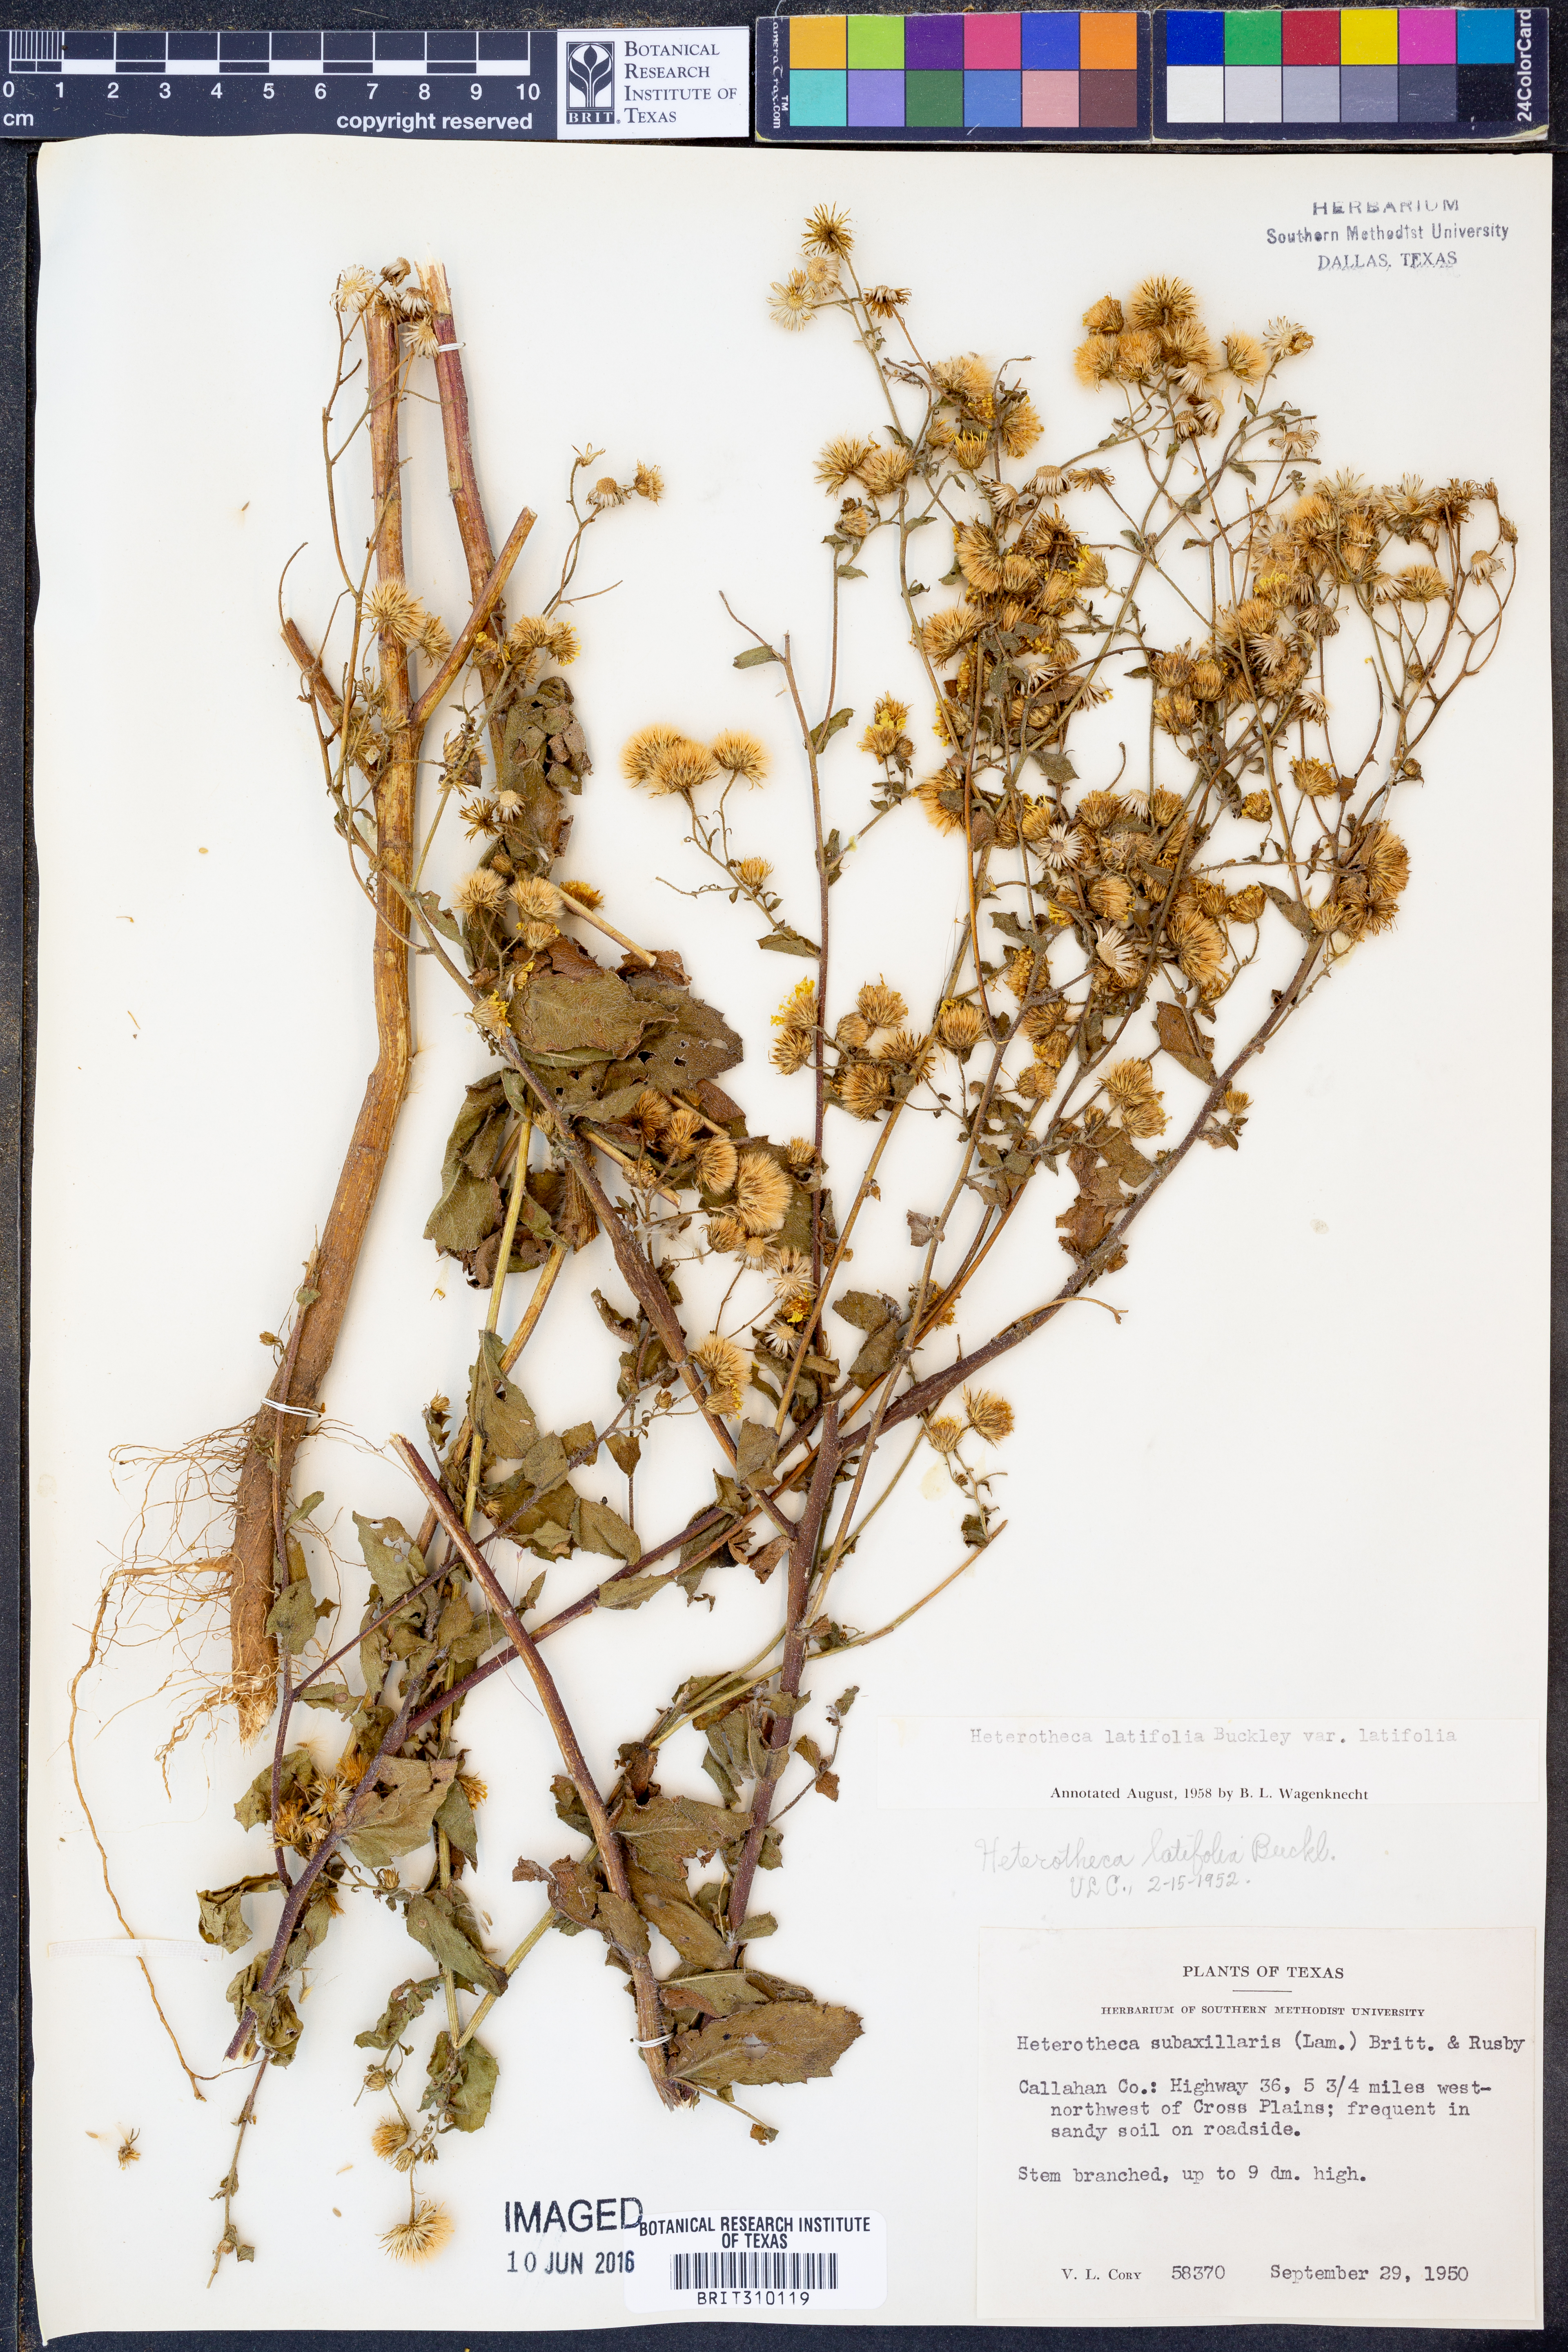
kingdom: Plantae
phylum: Tracheophyta
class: Magnoliopsida
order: Asterales
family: Asteraceae
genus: Heterotheca
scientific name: Heterotheca subaxillaris
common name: Camphorweed
